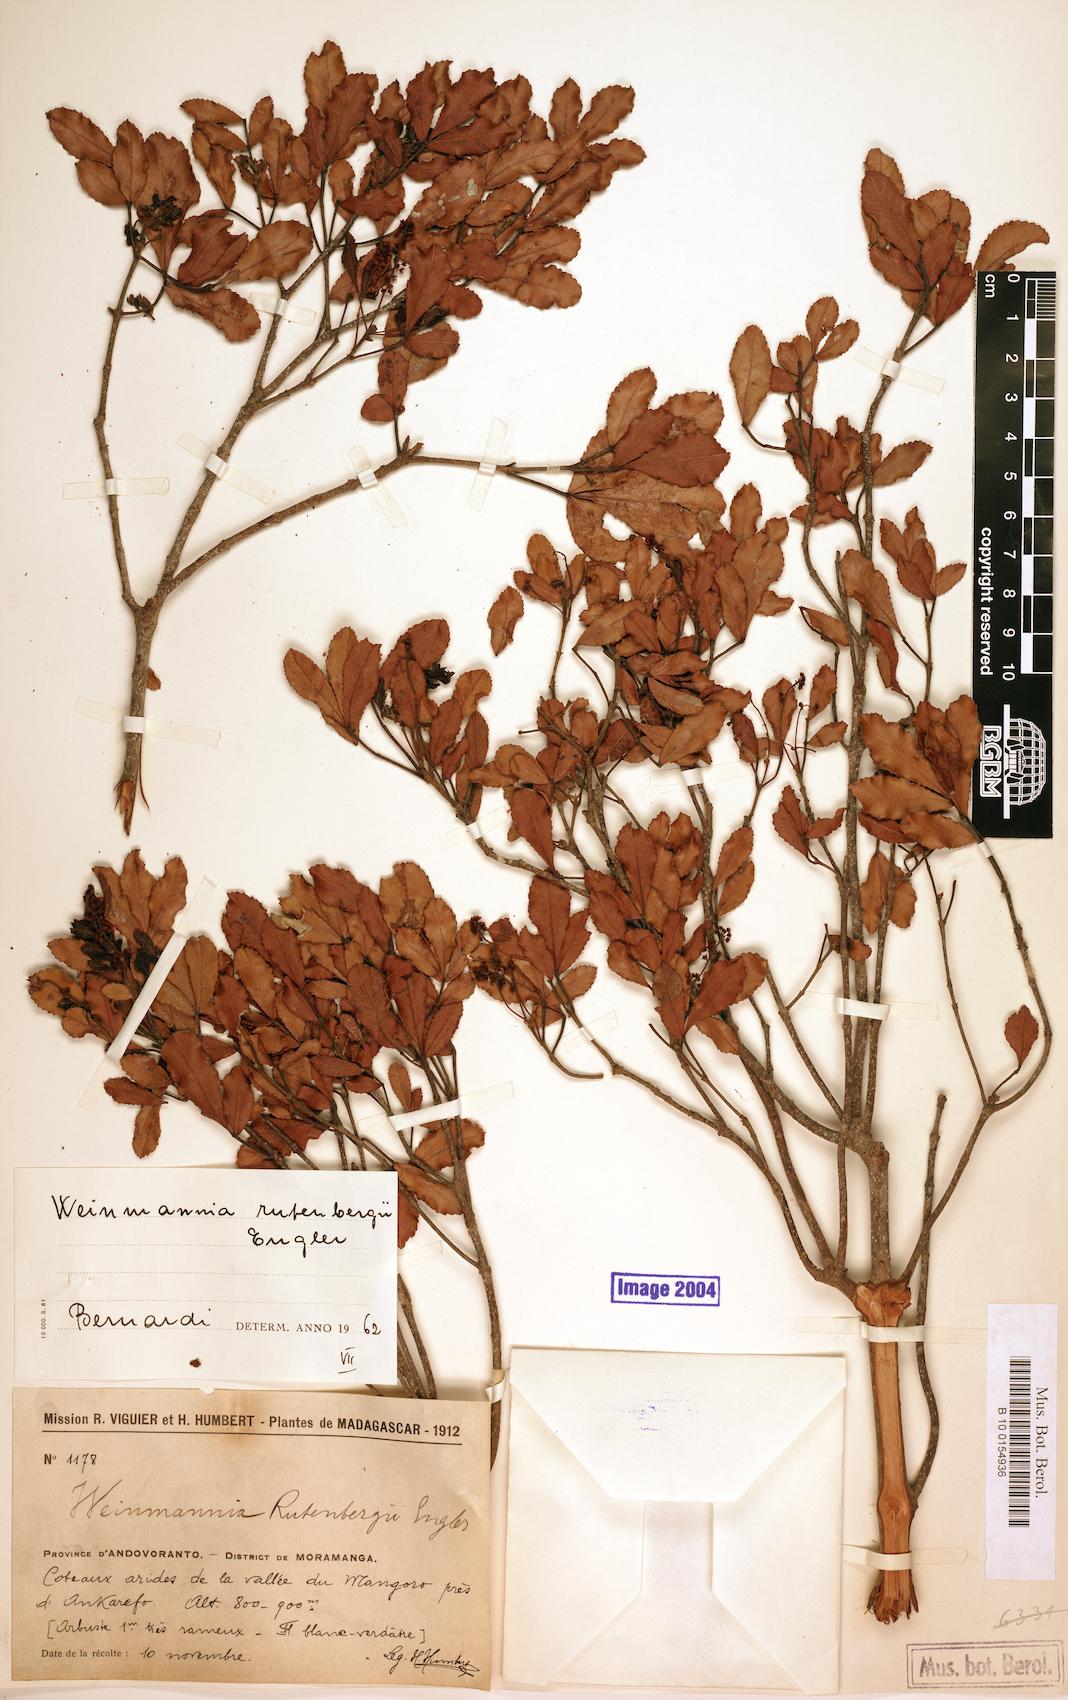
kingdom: Plantae
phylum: Tracheophyta
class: Magnoliopsida
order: Oxalidales
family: Cunoniaceae
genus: Pterophylla
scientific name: Pterophylla rutenbergii
